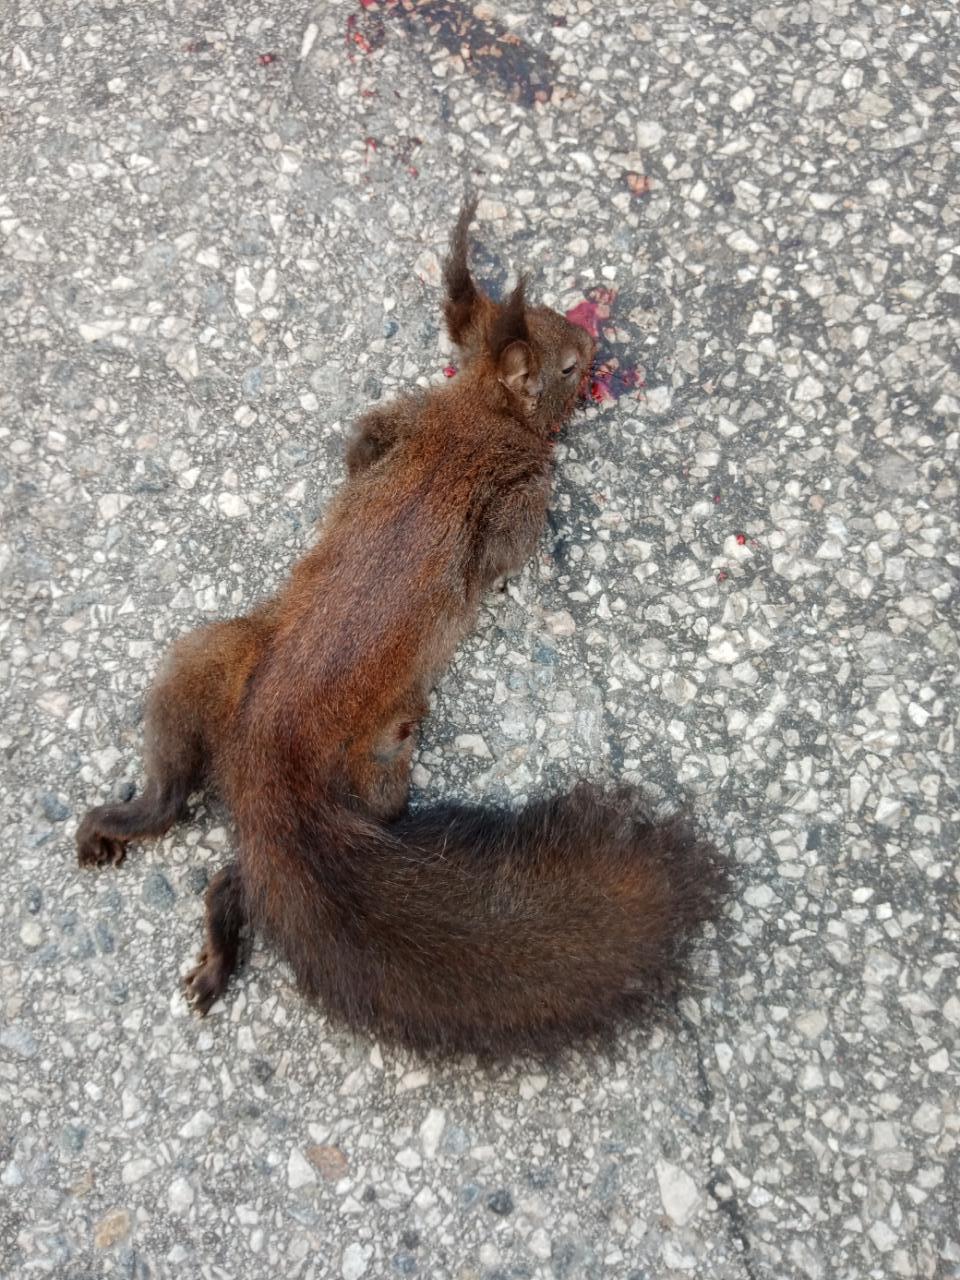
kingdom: Animalia
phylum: Chordata
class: Mammalia
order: Rodentia
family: Sciuridae
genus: Sciurus
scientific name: Sciurus vulgaris
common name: Eurasian red squirrel
